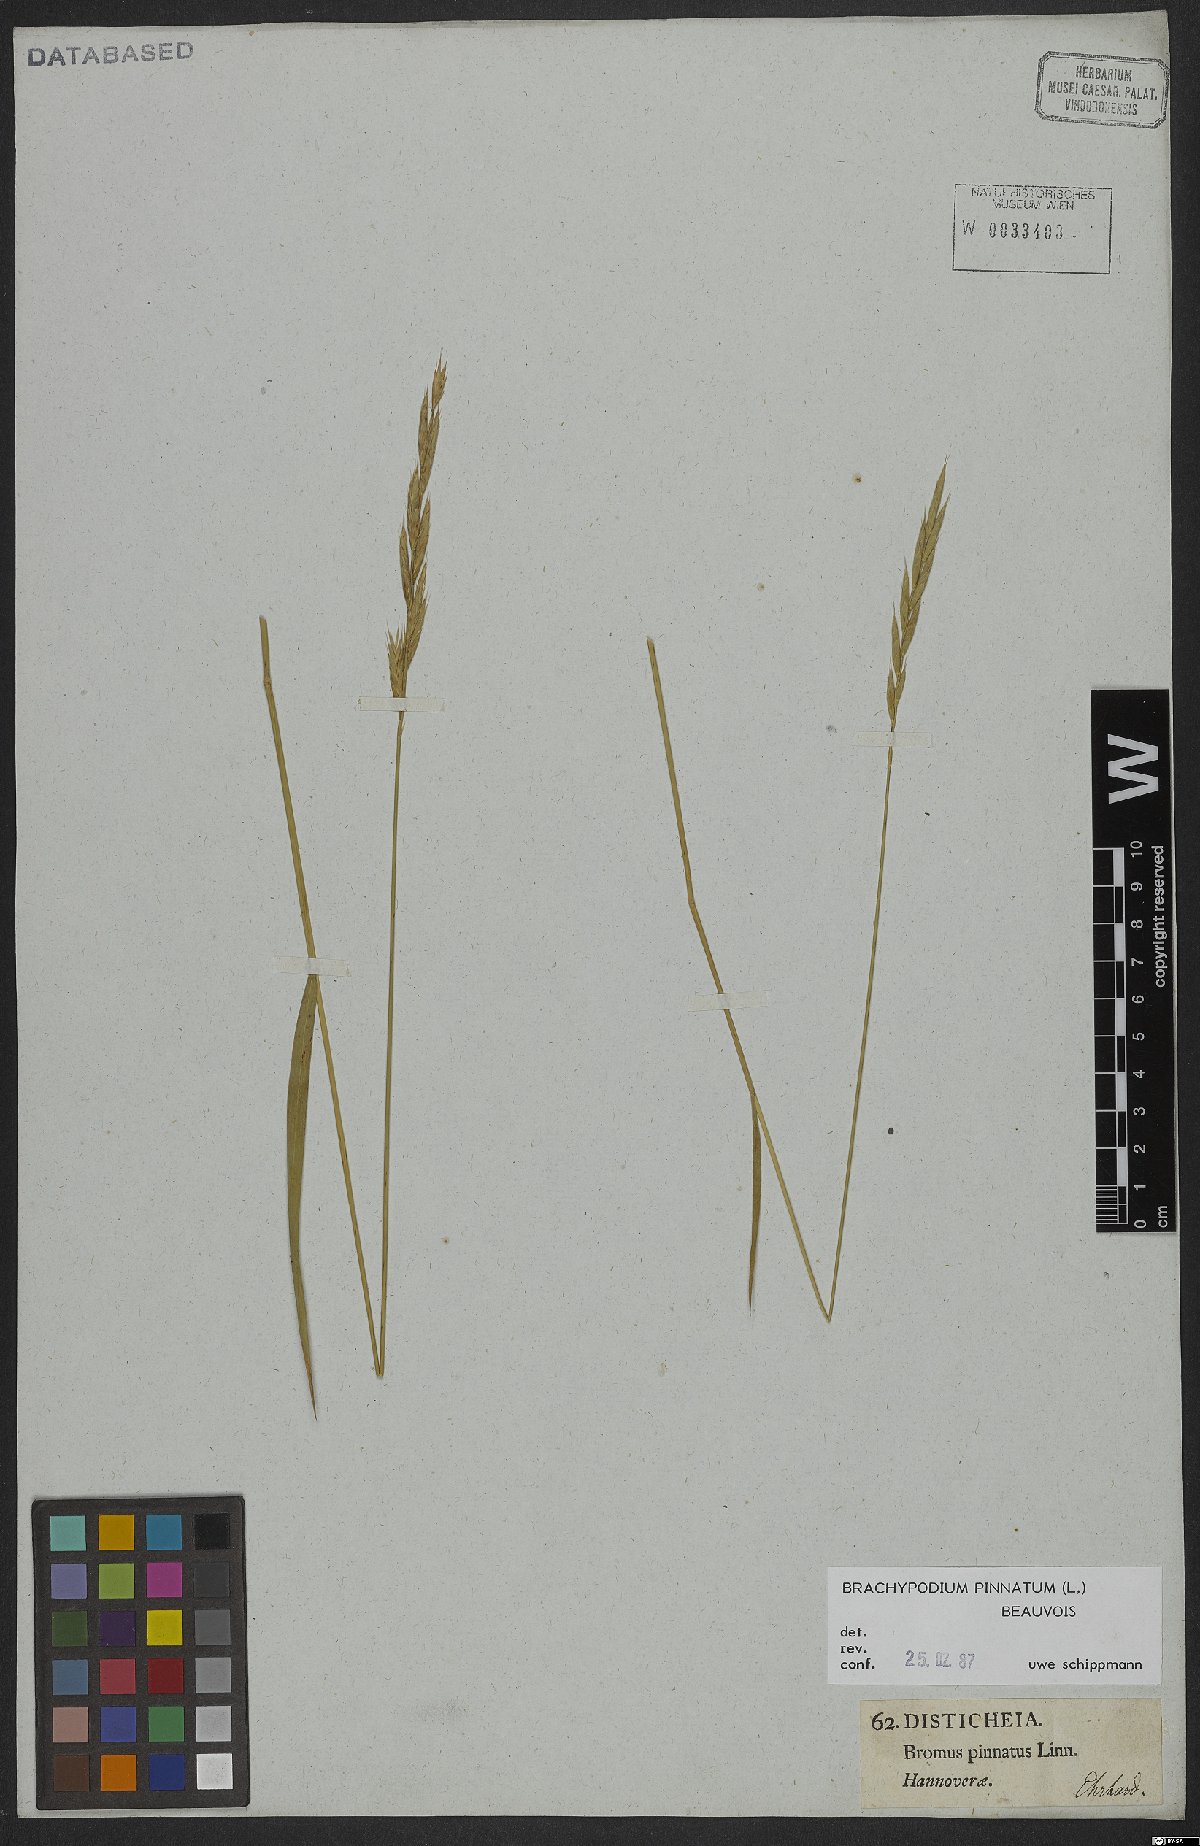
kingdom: Plantae
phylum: Tracheophyta
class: Liliopsida
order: Poales
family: Poaceae
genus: Brachypodium
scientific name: Brachypodium pinnatum
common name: Tor grass
